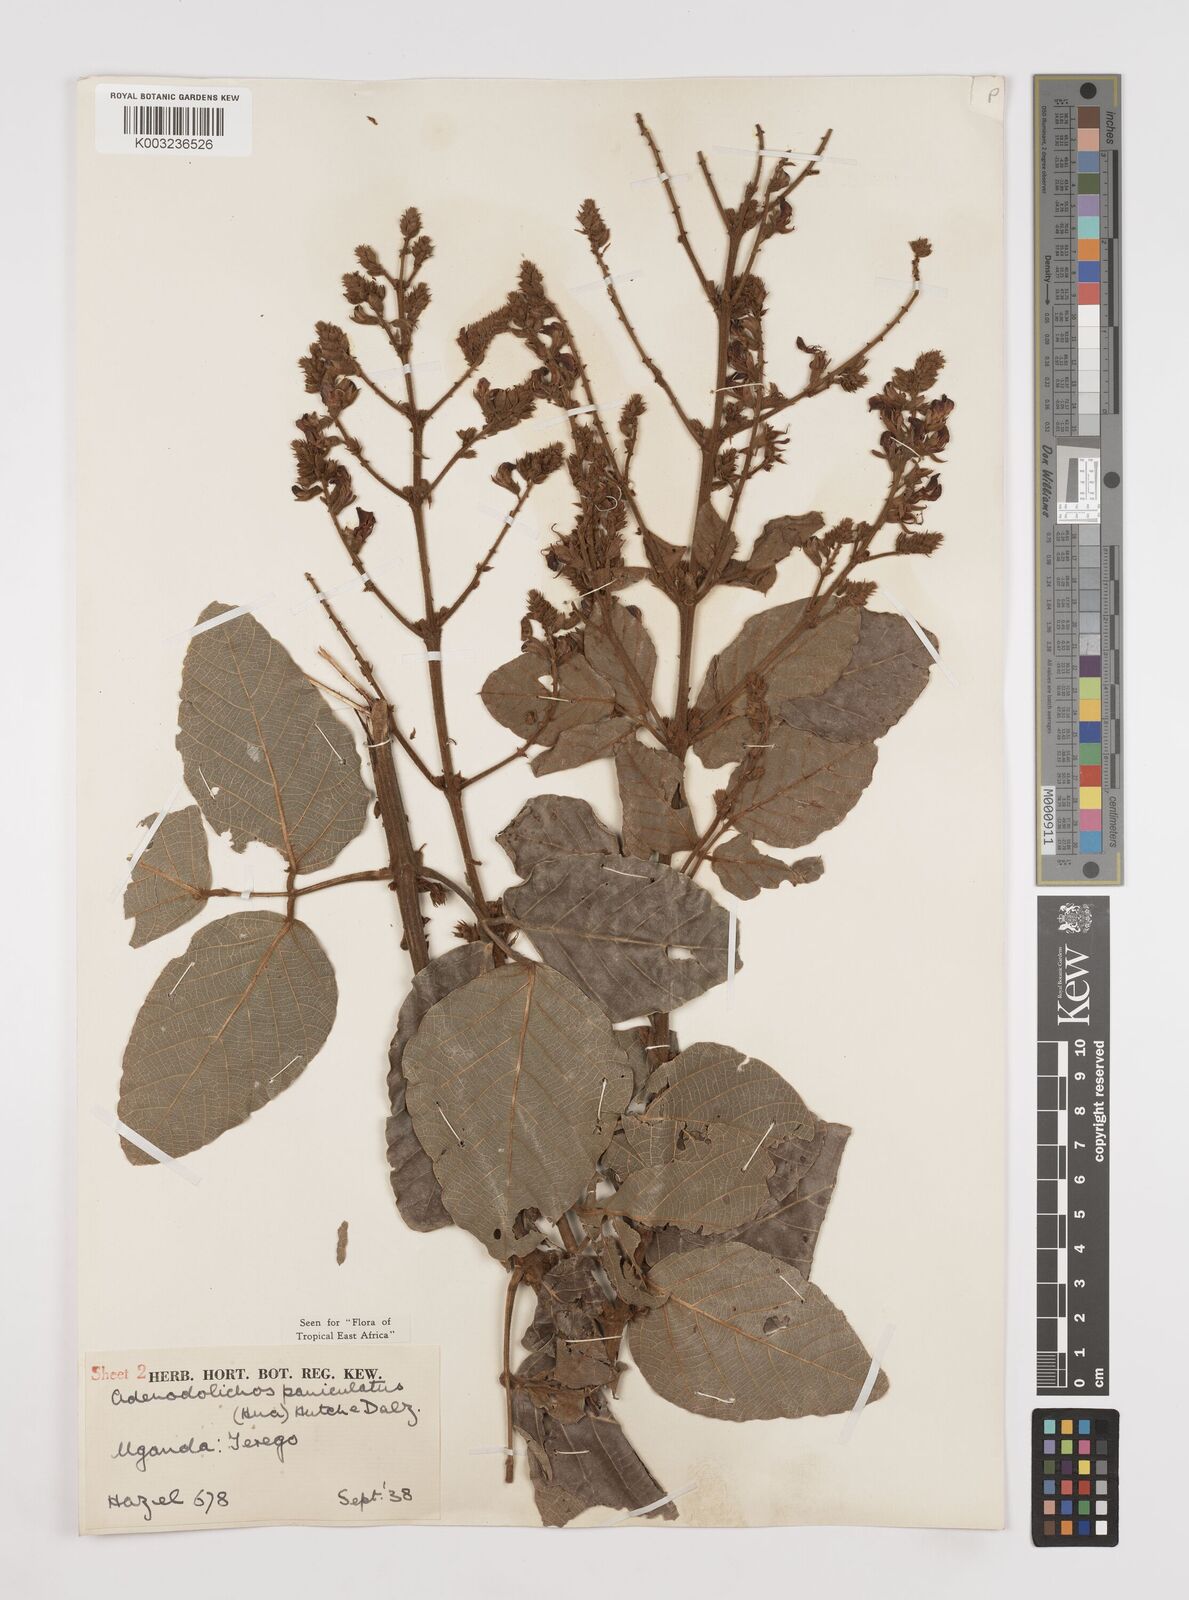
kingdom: Plantae
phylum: Tracheophyta
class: Magnoliopsida
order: Fabales
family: Fabaceae
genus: Adenodolichos
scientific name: Adenodolichos paniculatus
